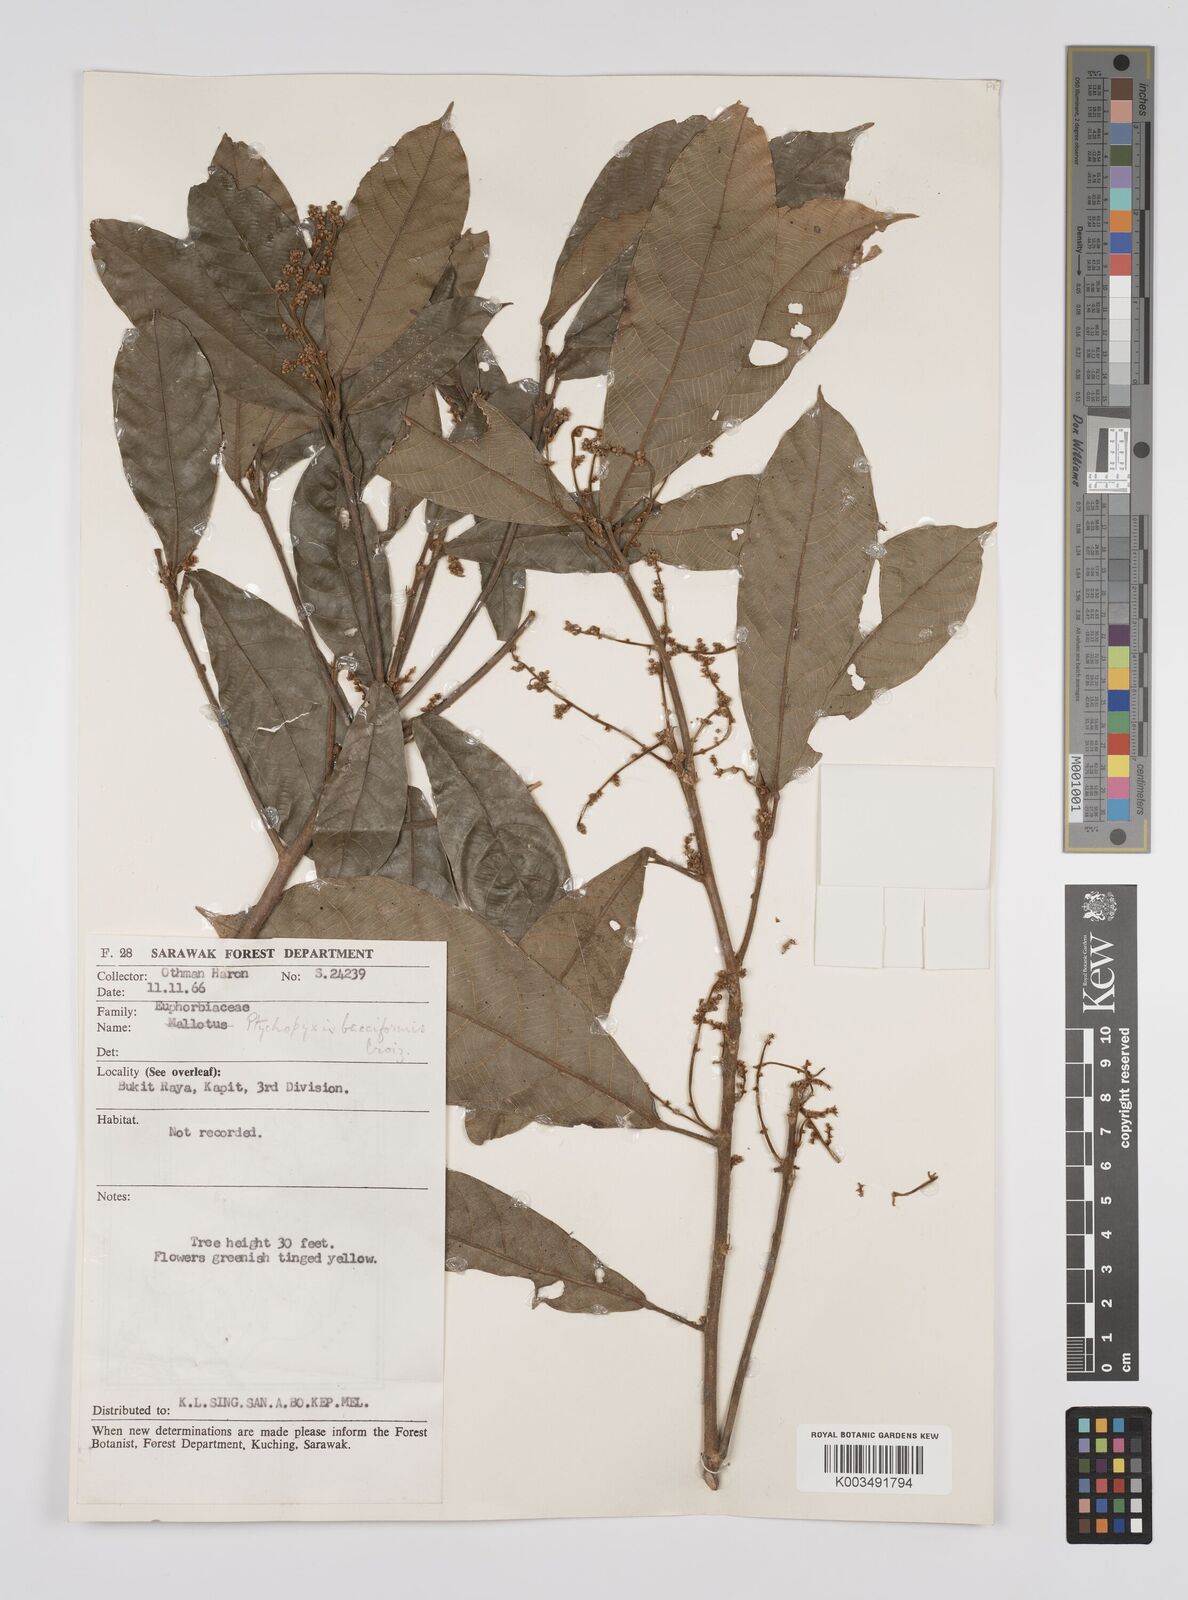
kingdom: Plantae
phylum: Tracheophyta
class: Magnoliopsida
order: Malpighiales
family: Euphorbiaceae
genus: Ptychopyxis
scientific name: Ptychopyxis bacciformis
